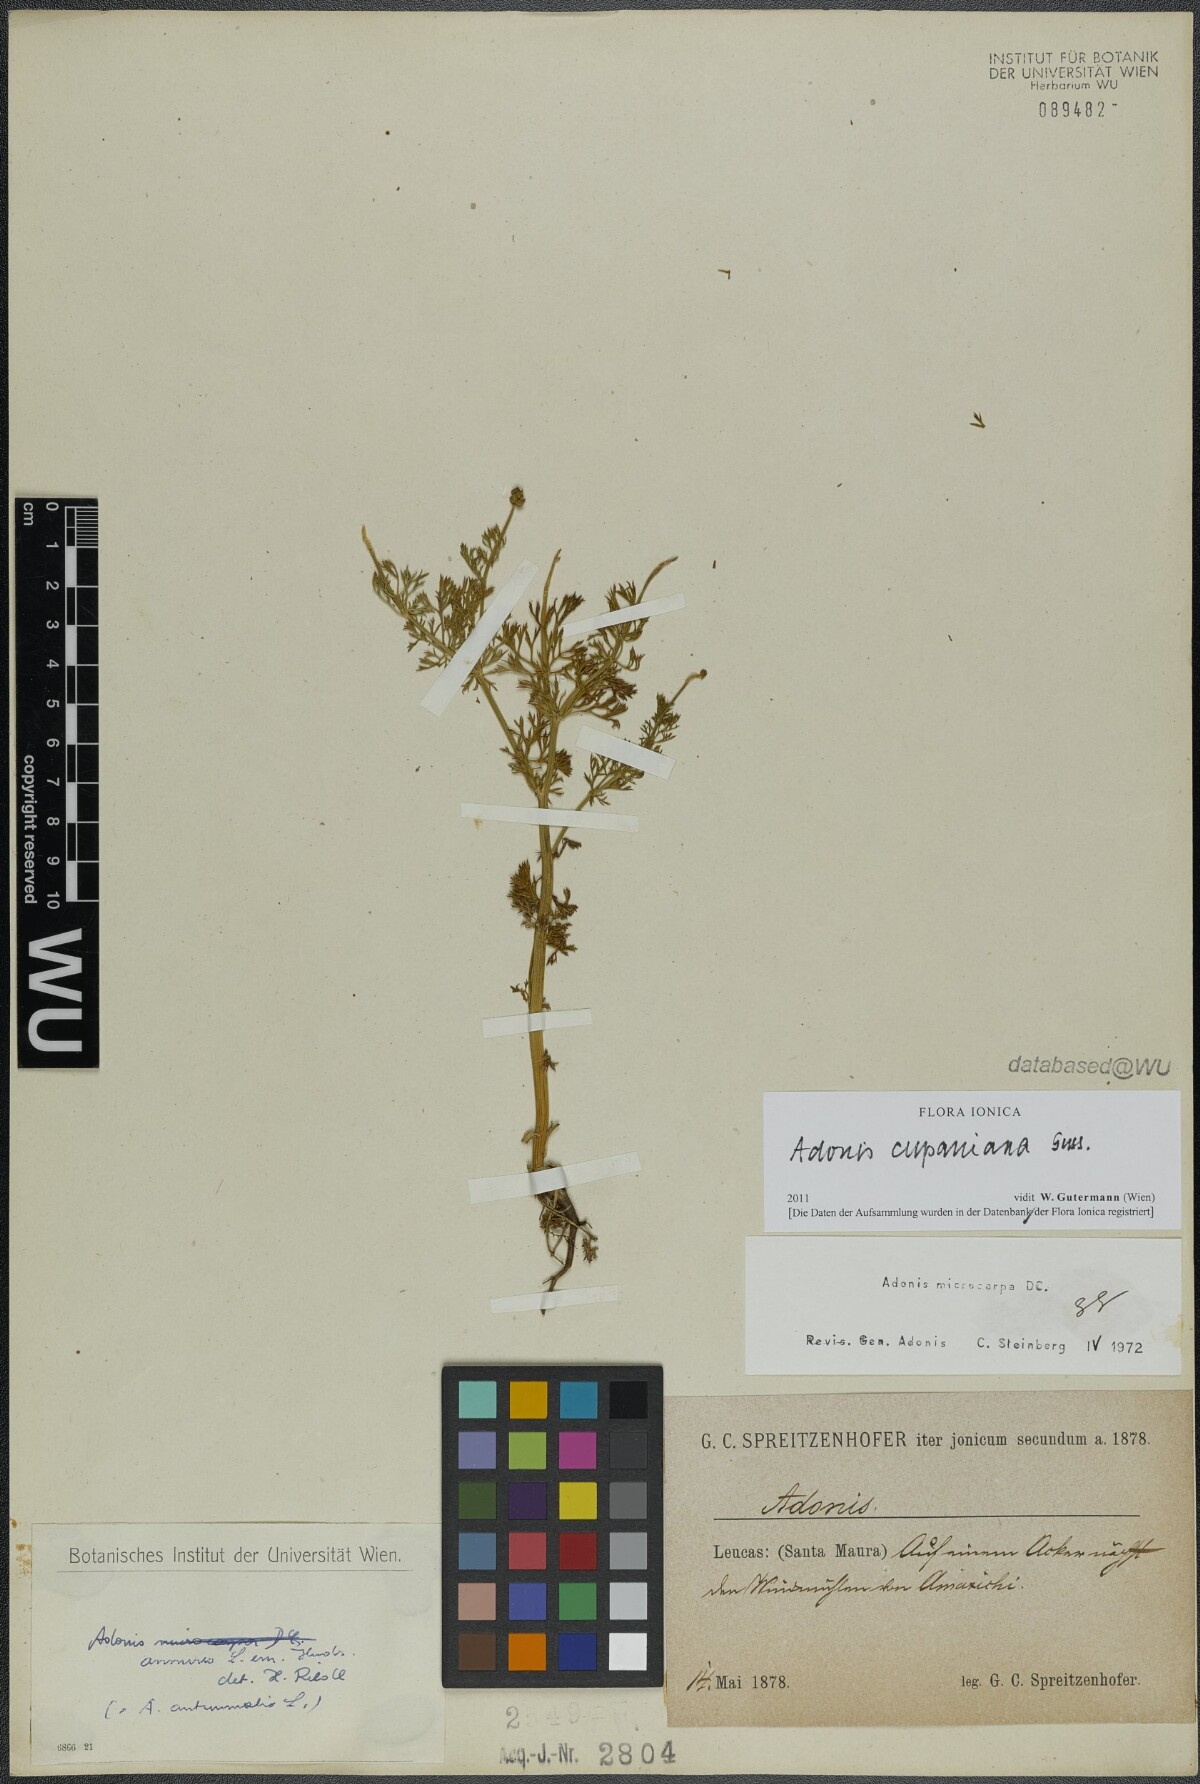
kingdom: Plantae
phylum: Tracheophyta
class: Magnoliopsida
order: Ranunculales
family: Ranunculaceae
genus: Adonis
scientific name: Adonis annua
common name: Pheasant's-eye
